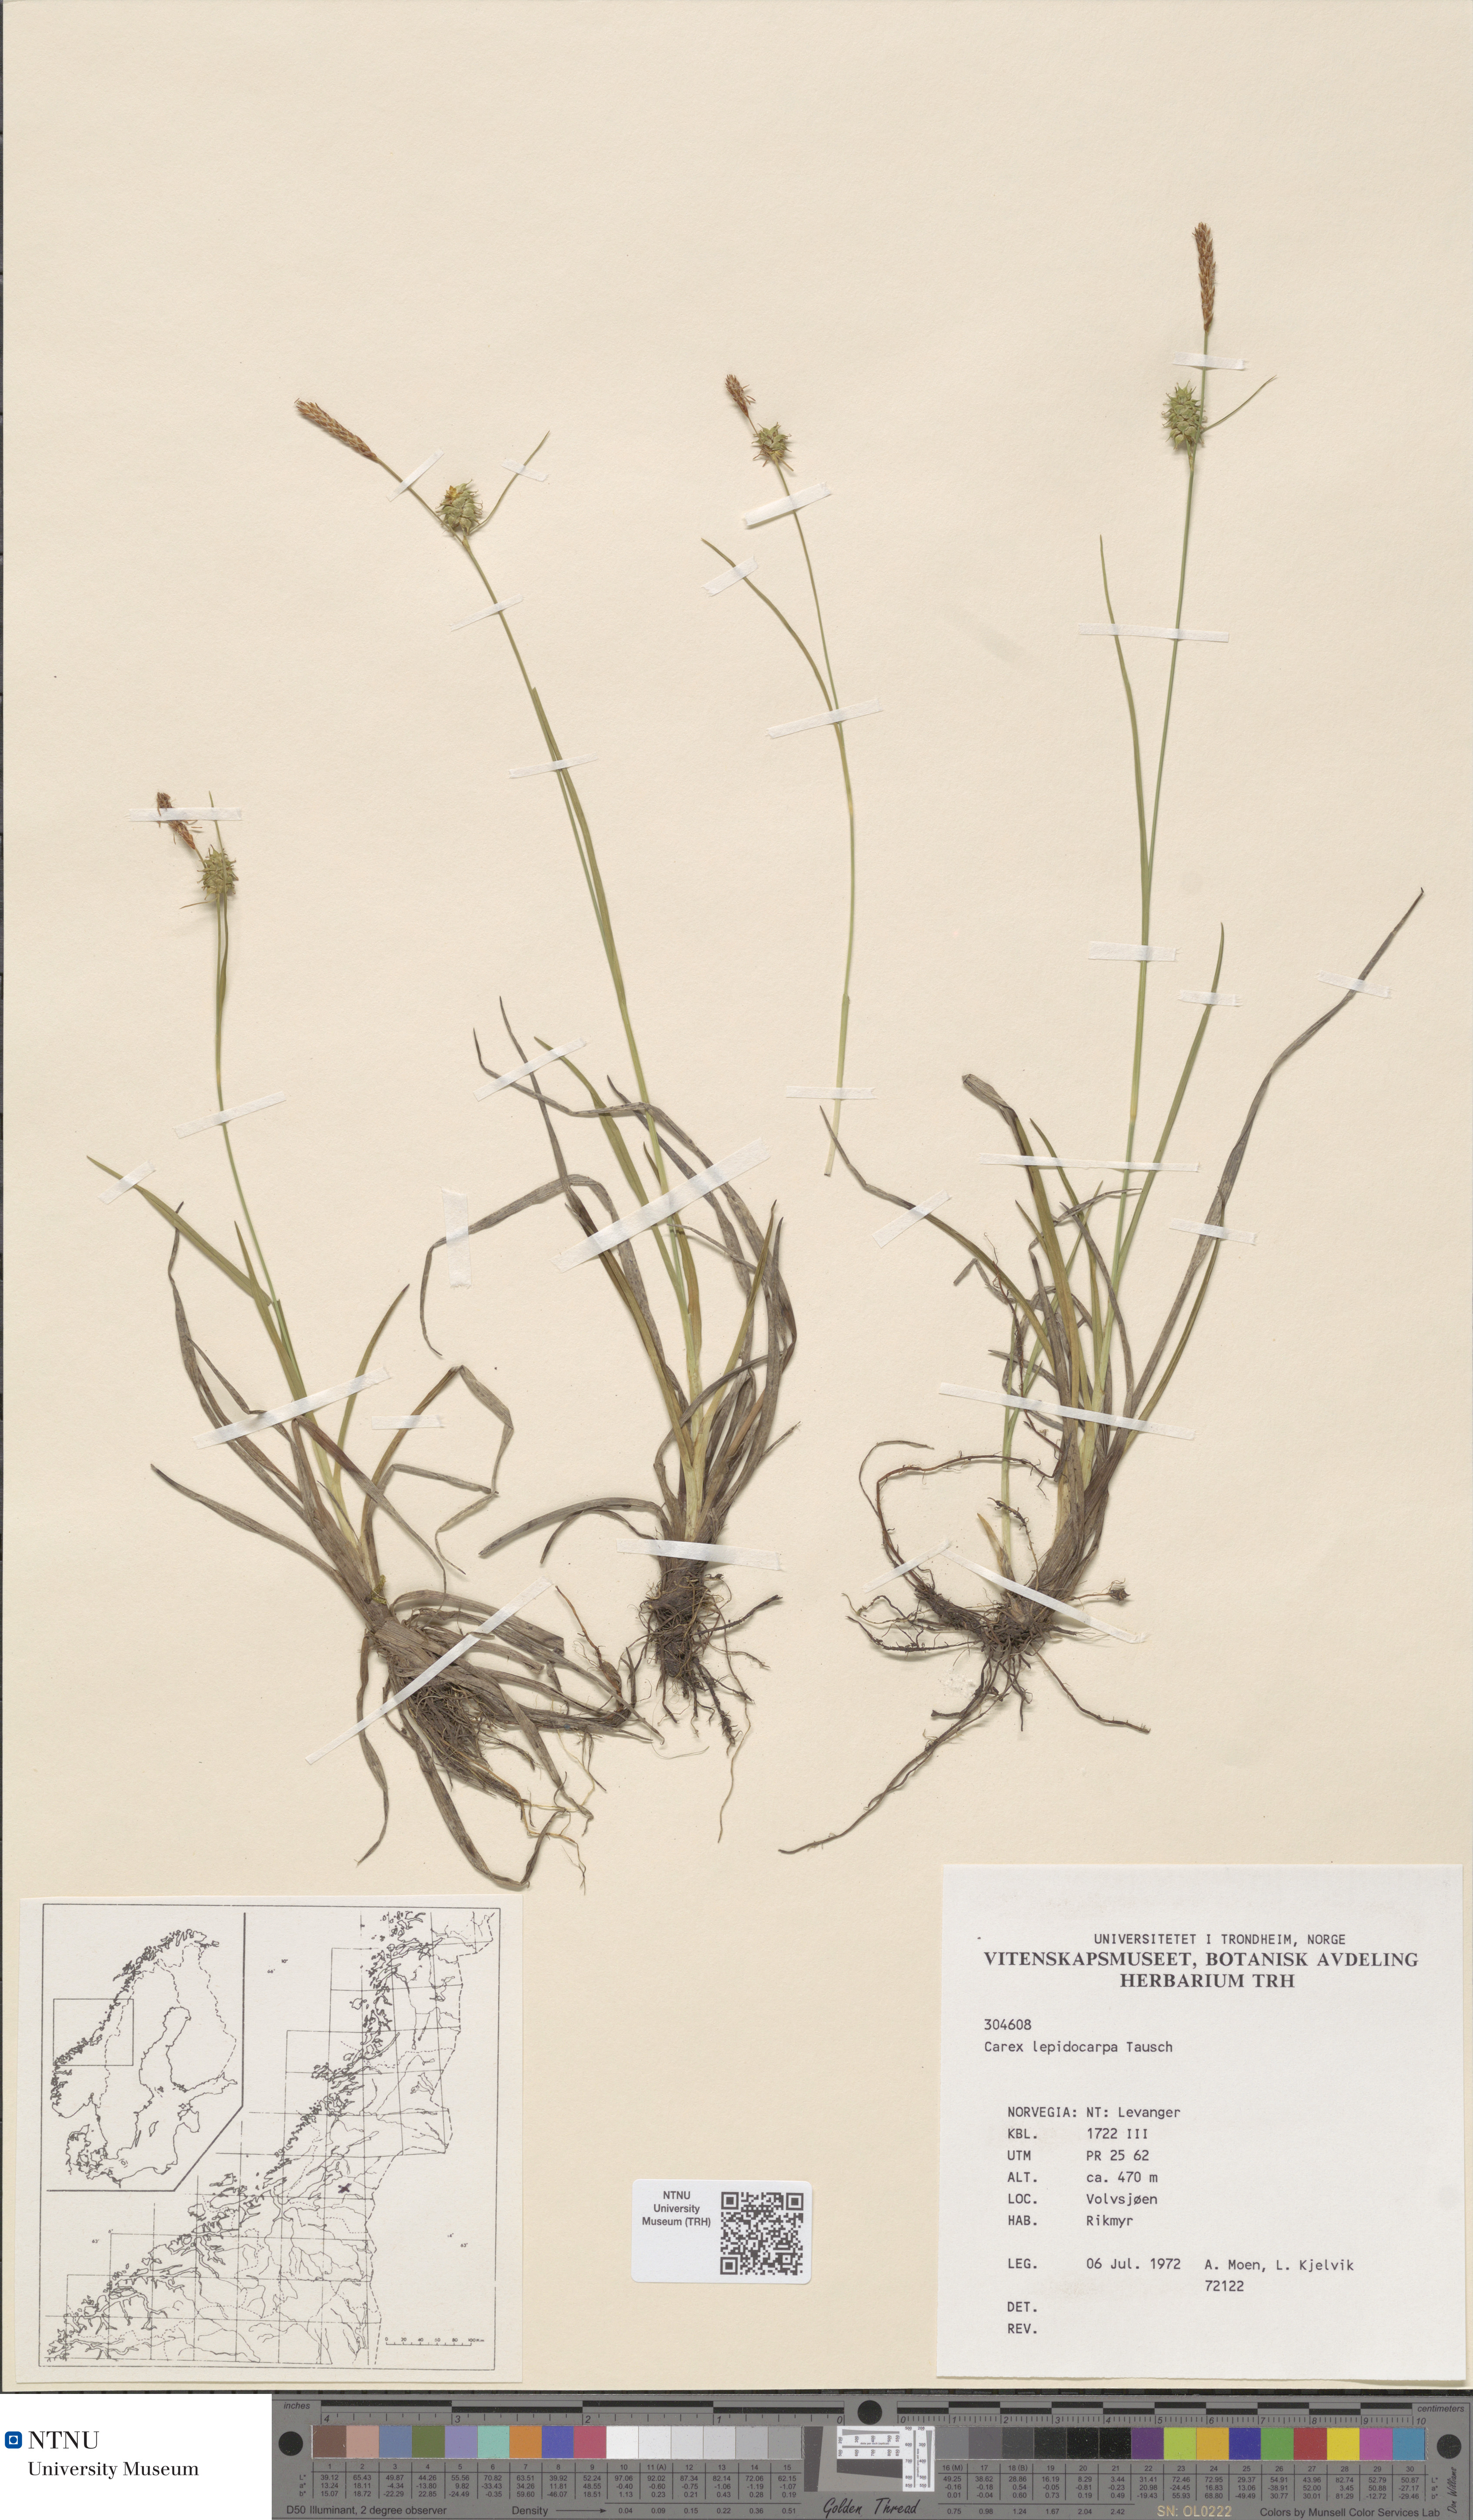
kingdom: Plantae
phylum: Tracheophyta
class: Liliopsida
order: Poales
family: Cyperaceae
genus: Carex
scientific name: Carex lepidocarpa
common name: Long-stalked yellow-sedge
